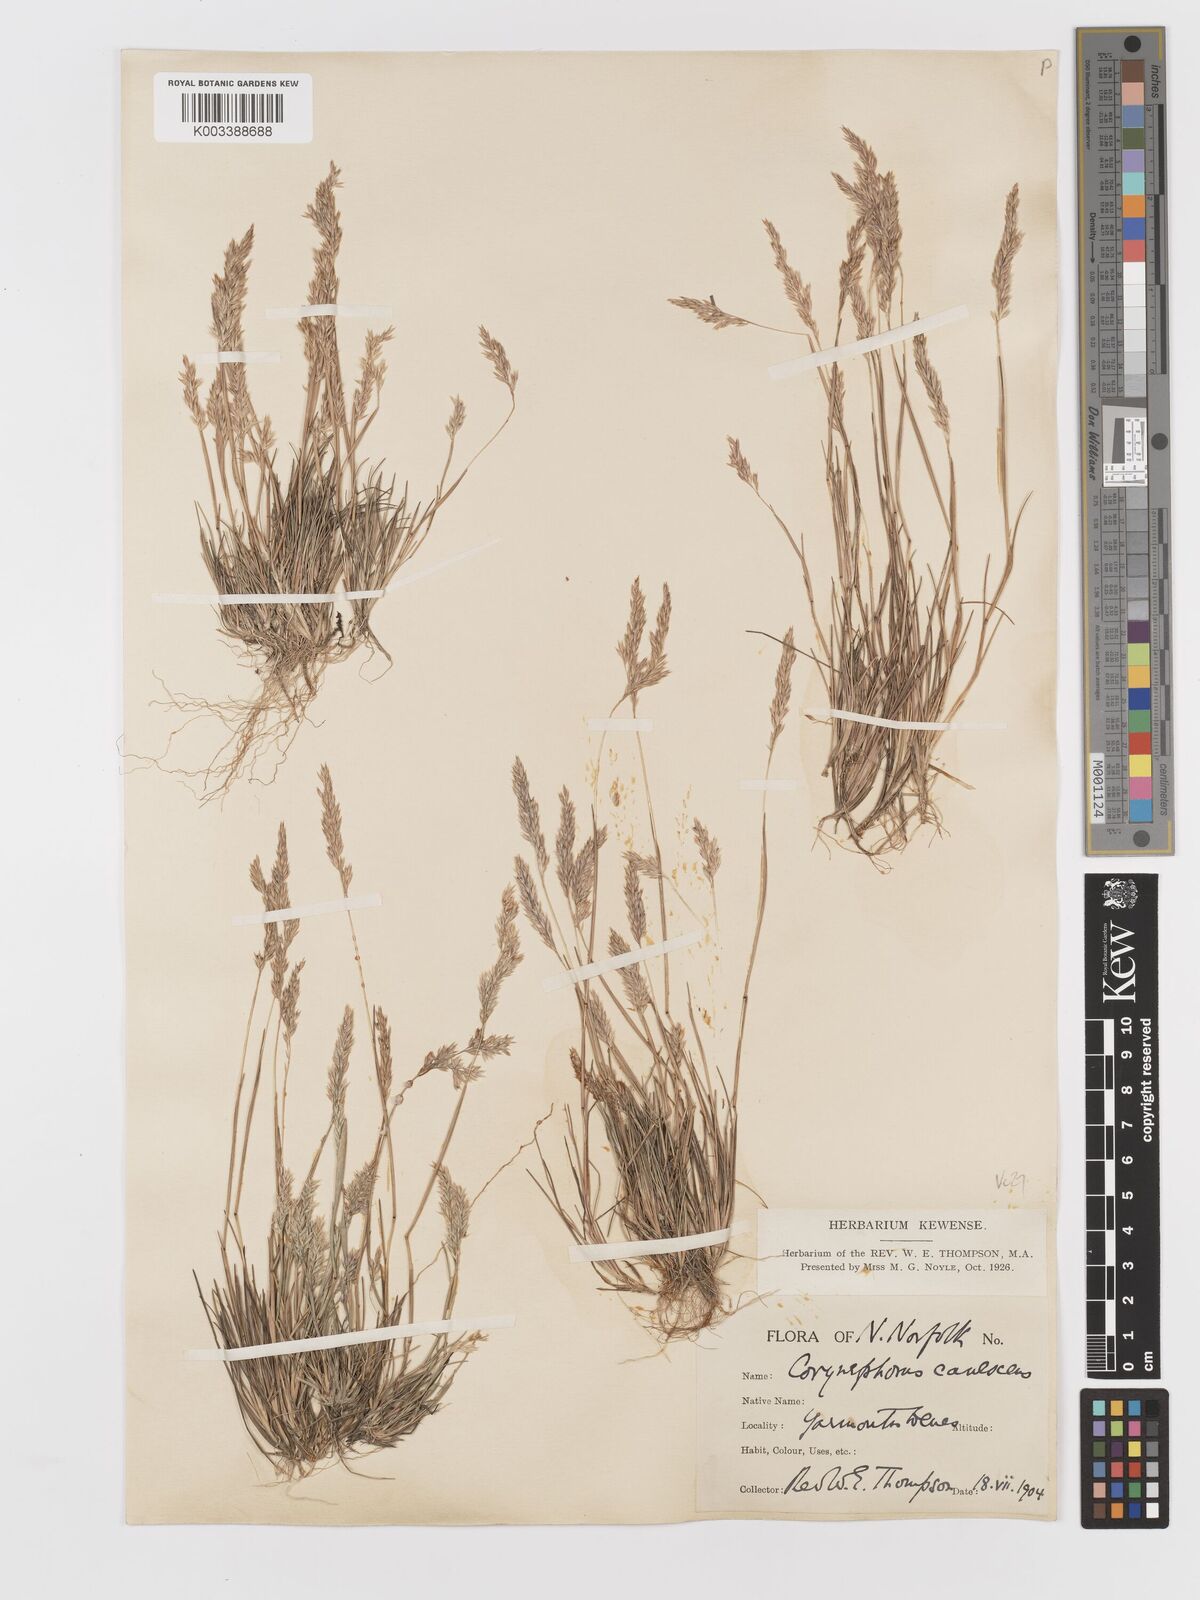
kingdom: Plantae
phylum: Tracheophyta
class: Liliopsida
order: Poales
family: Poaceae
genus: Corynephorus
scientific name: Corynephorus canescens
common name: Grey hair-grass
